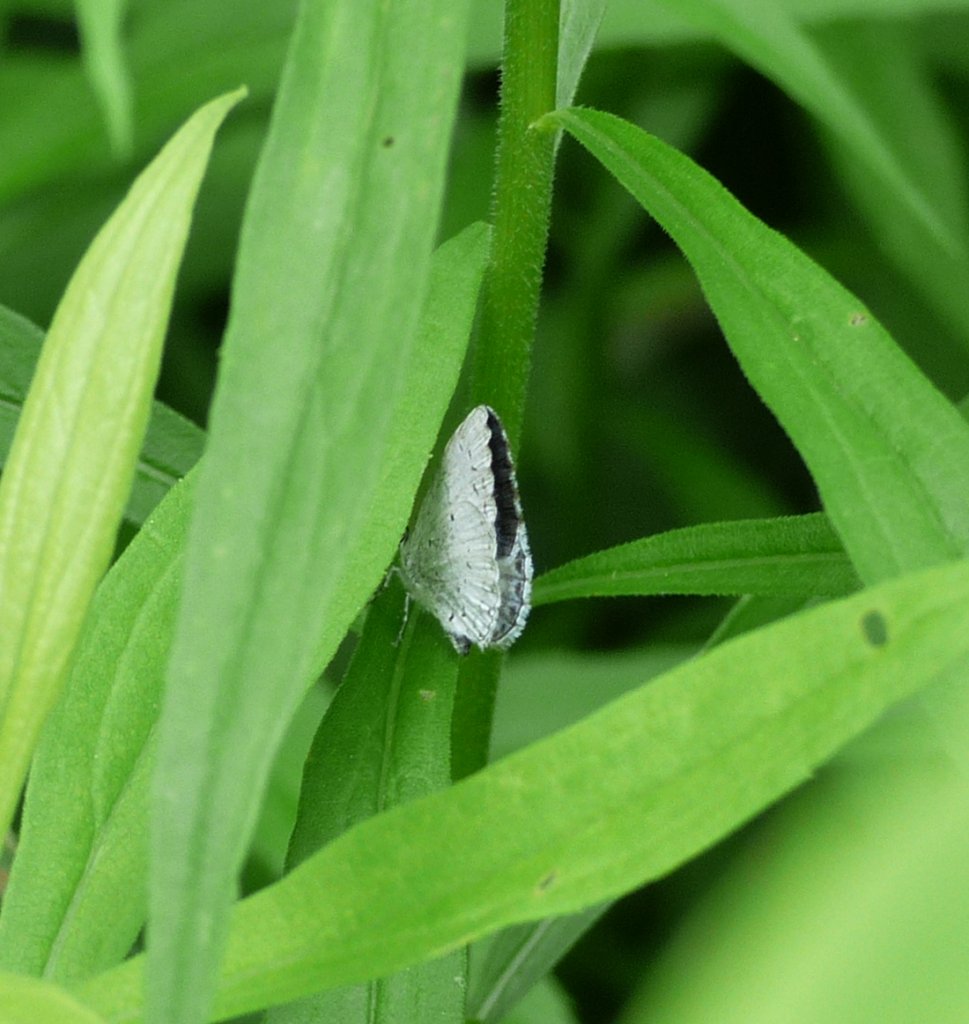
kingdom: Animalia
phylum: Arthropoda
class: Insecta
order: Lepidoptera
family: Lycaenidae
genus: Celastrina
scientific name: Celastrina lucia
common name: Northern Spring Azure
